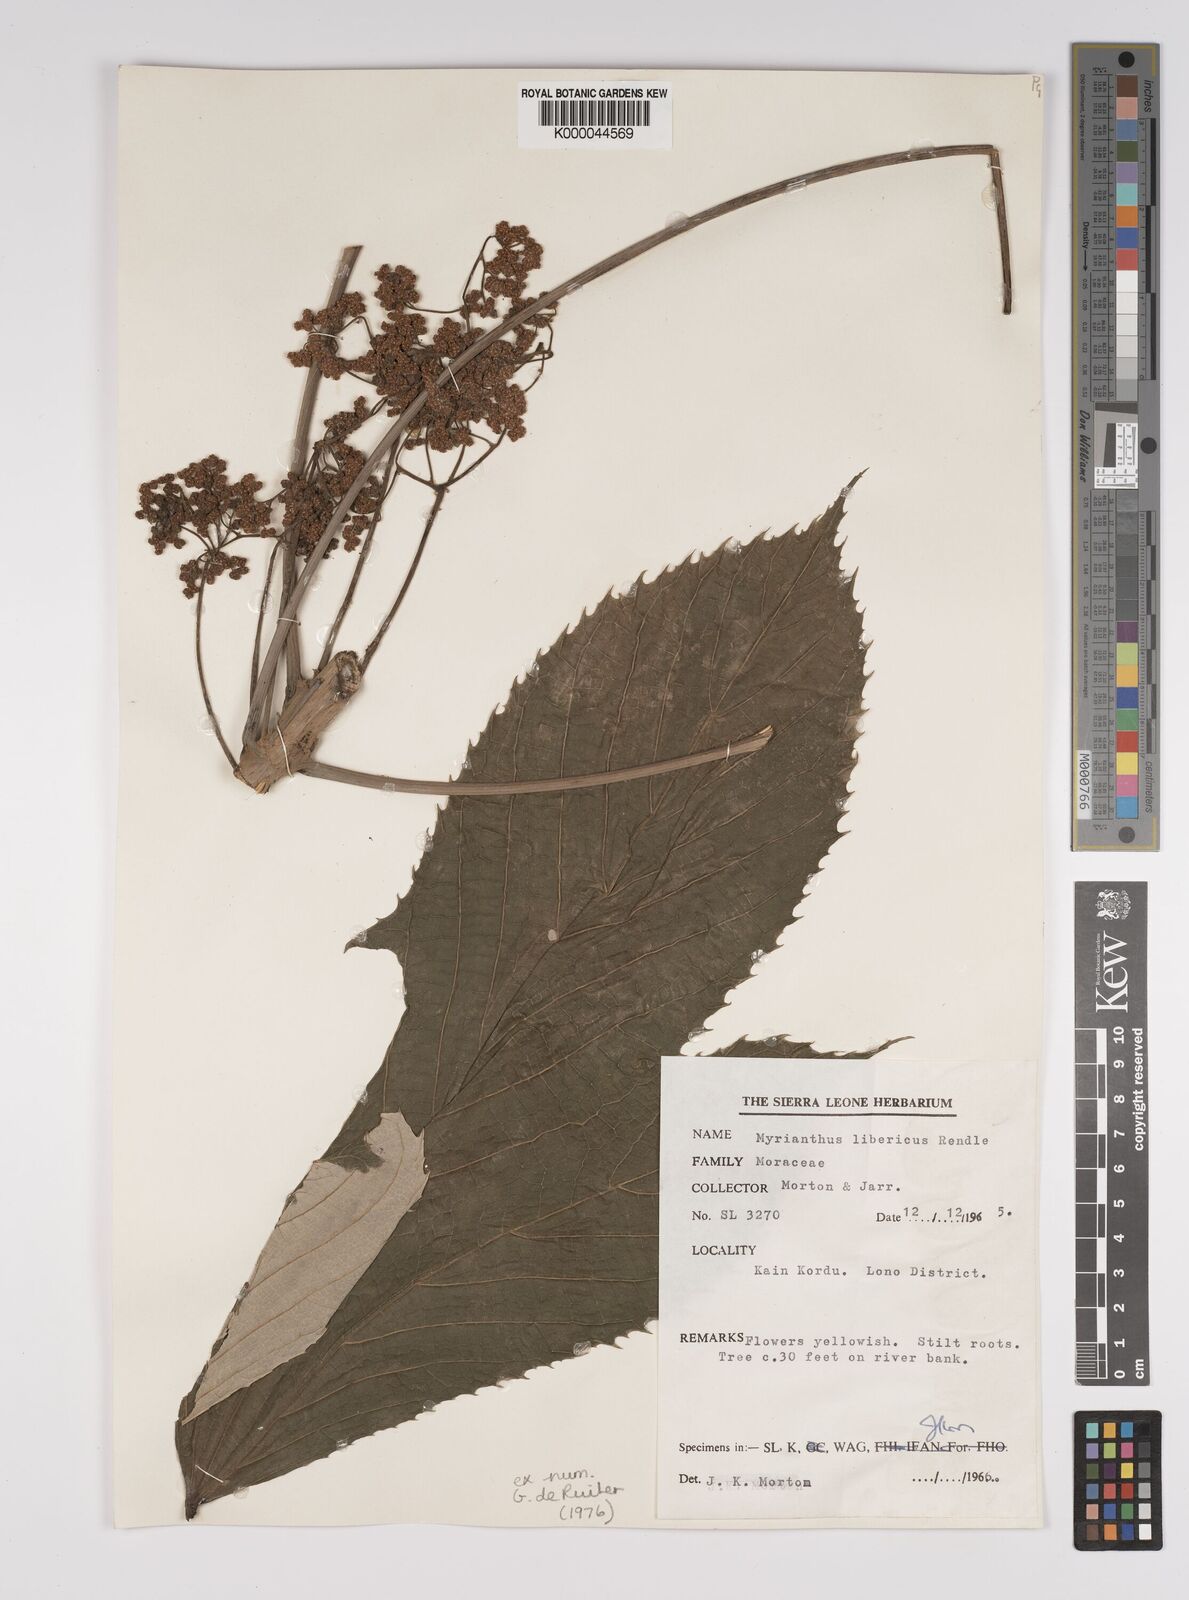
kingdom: Plantae
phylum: Tracheophyta
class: Magnoliopsida
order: Rosales
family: Urticaceae
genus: Myrianthus
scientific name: Myrianthus libericus
